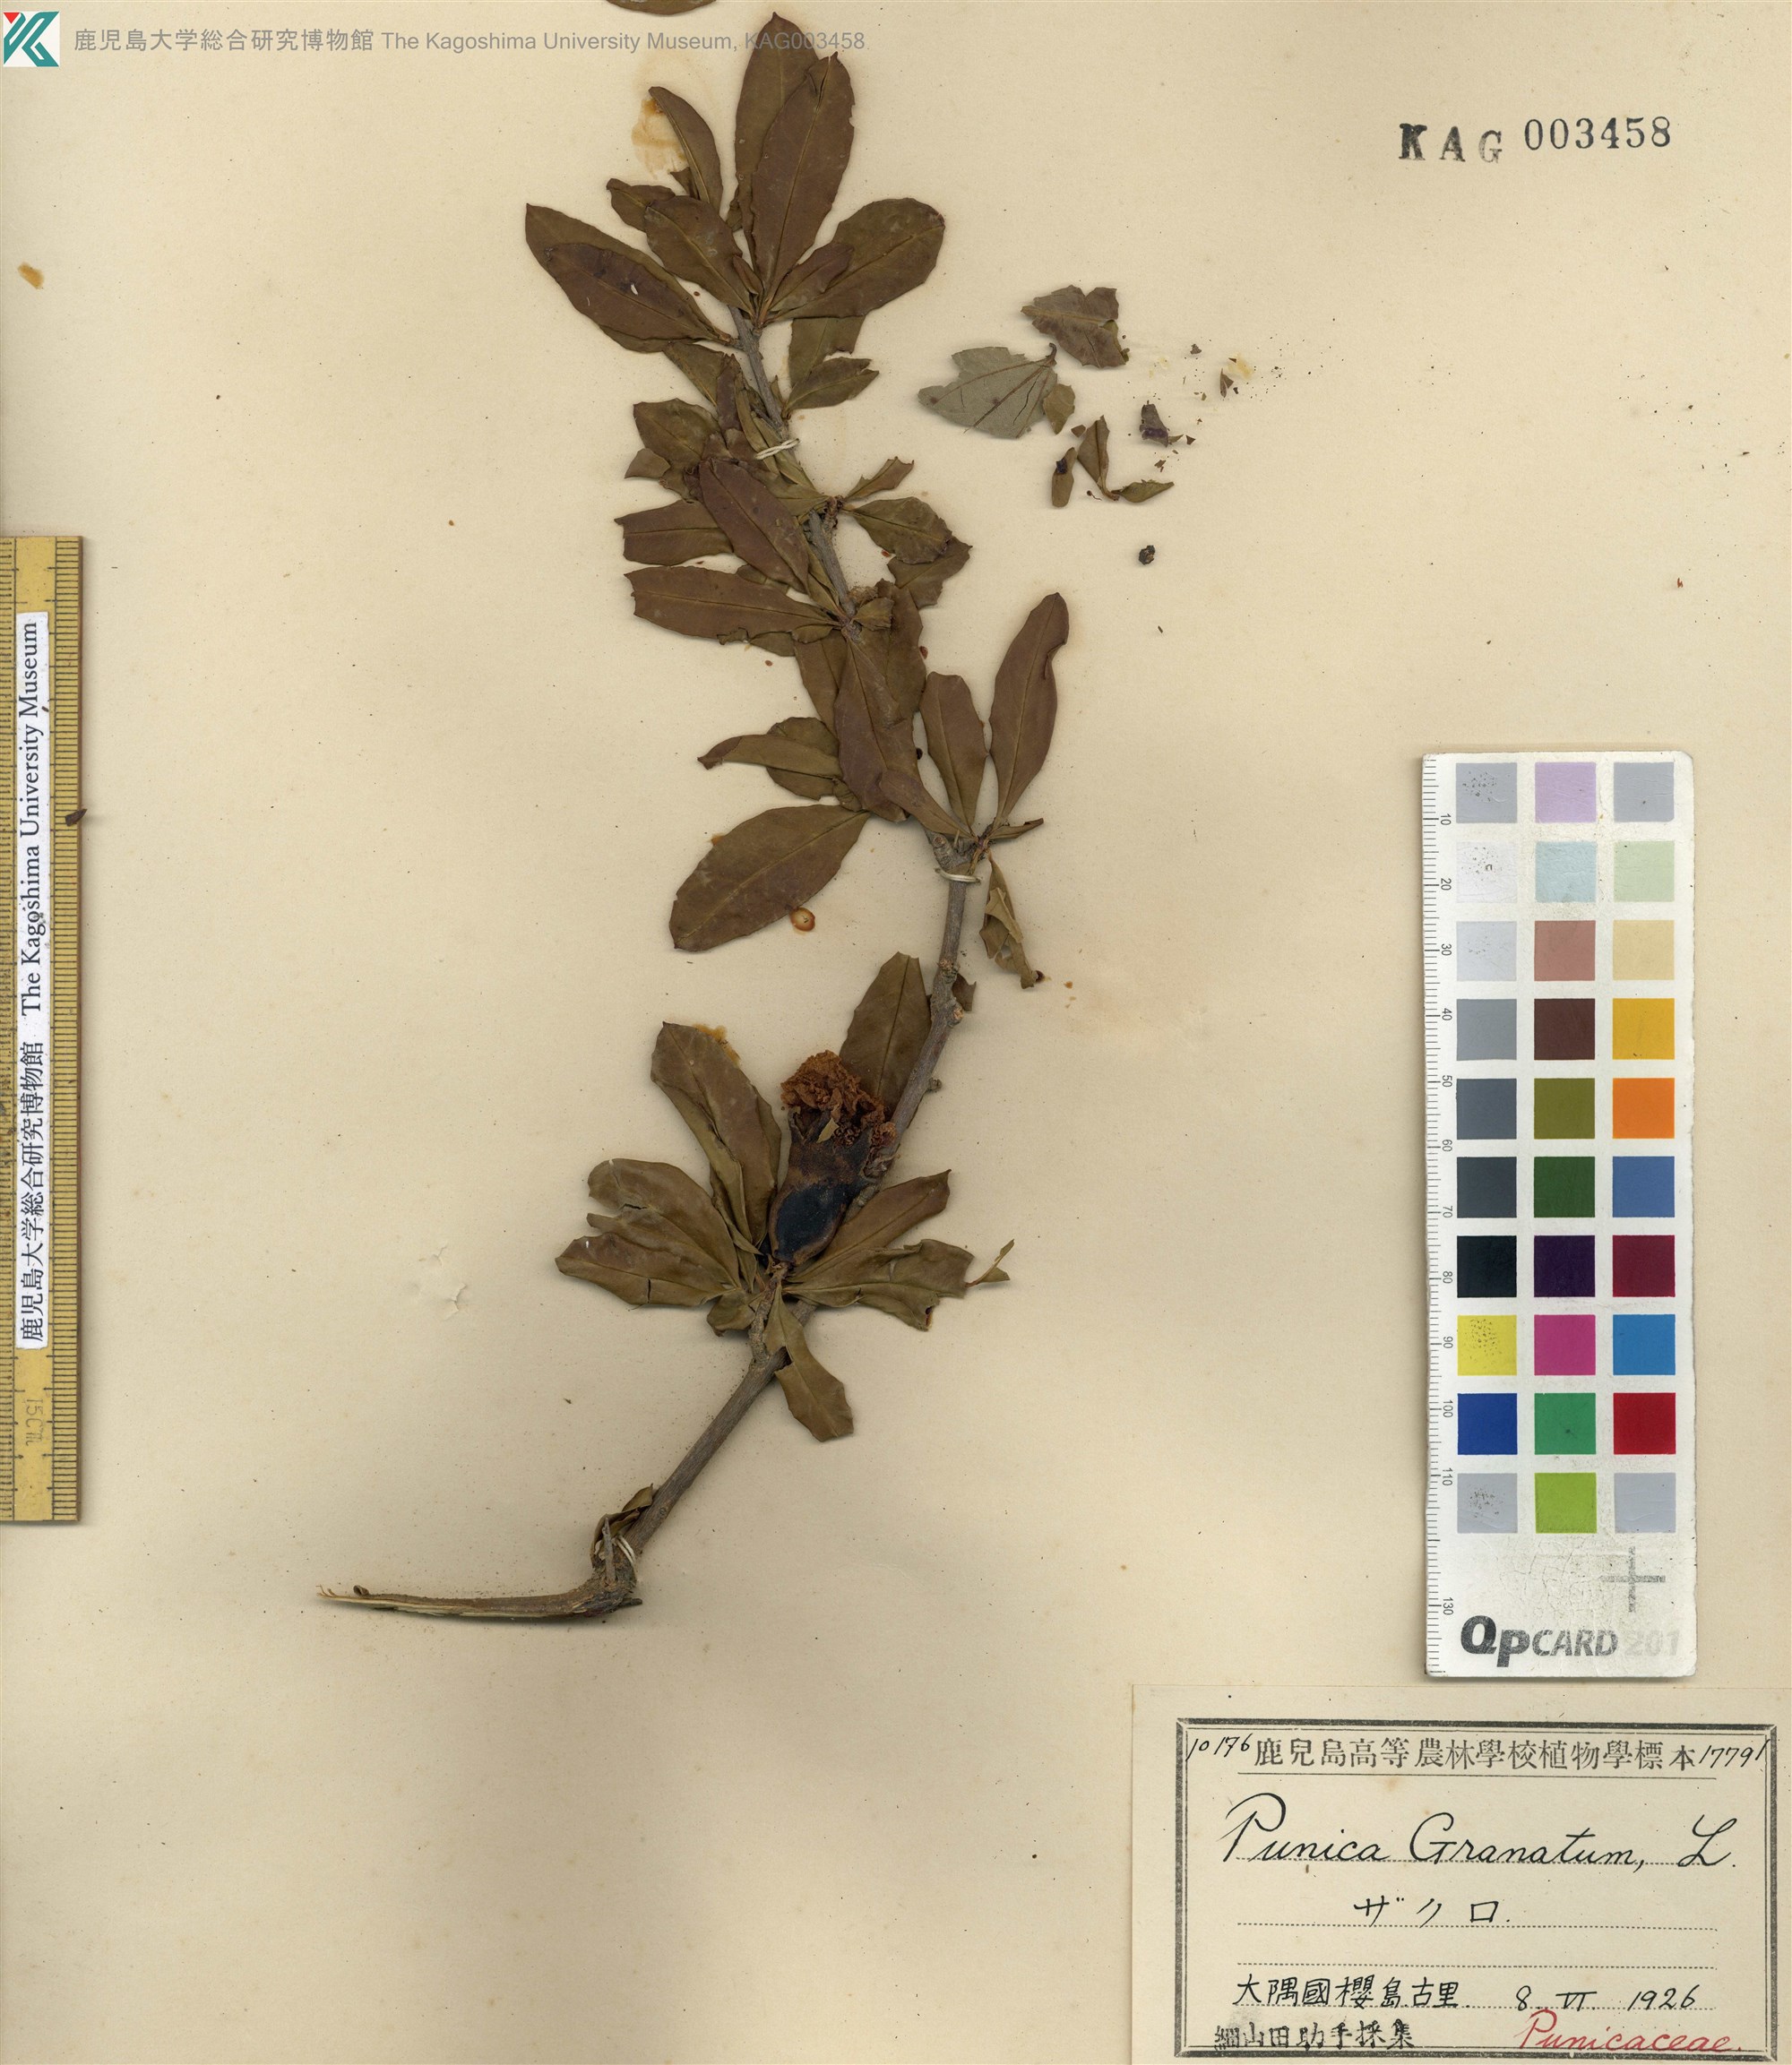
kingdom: Plantae
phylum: Tracheophyta
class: Magnoliopsida
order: Myrtales
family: Lythraceae
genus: Punica
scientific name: Punica granatum
